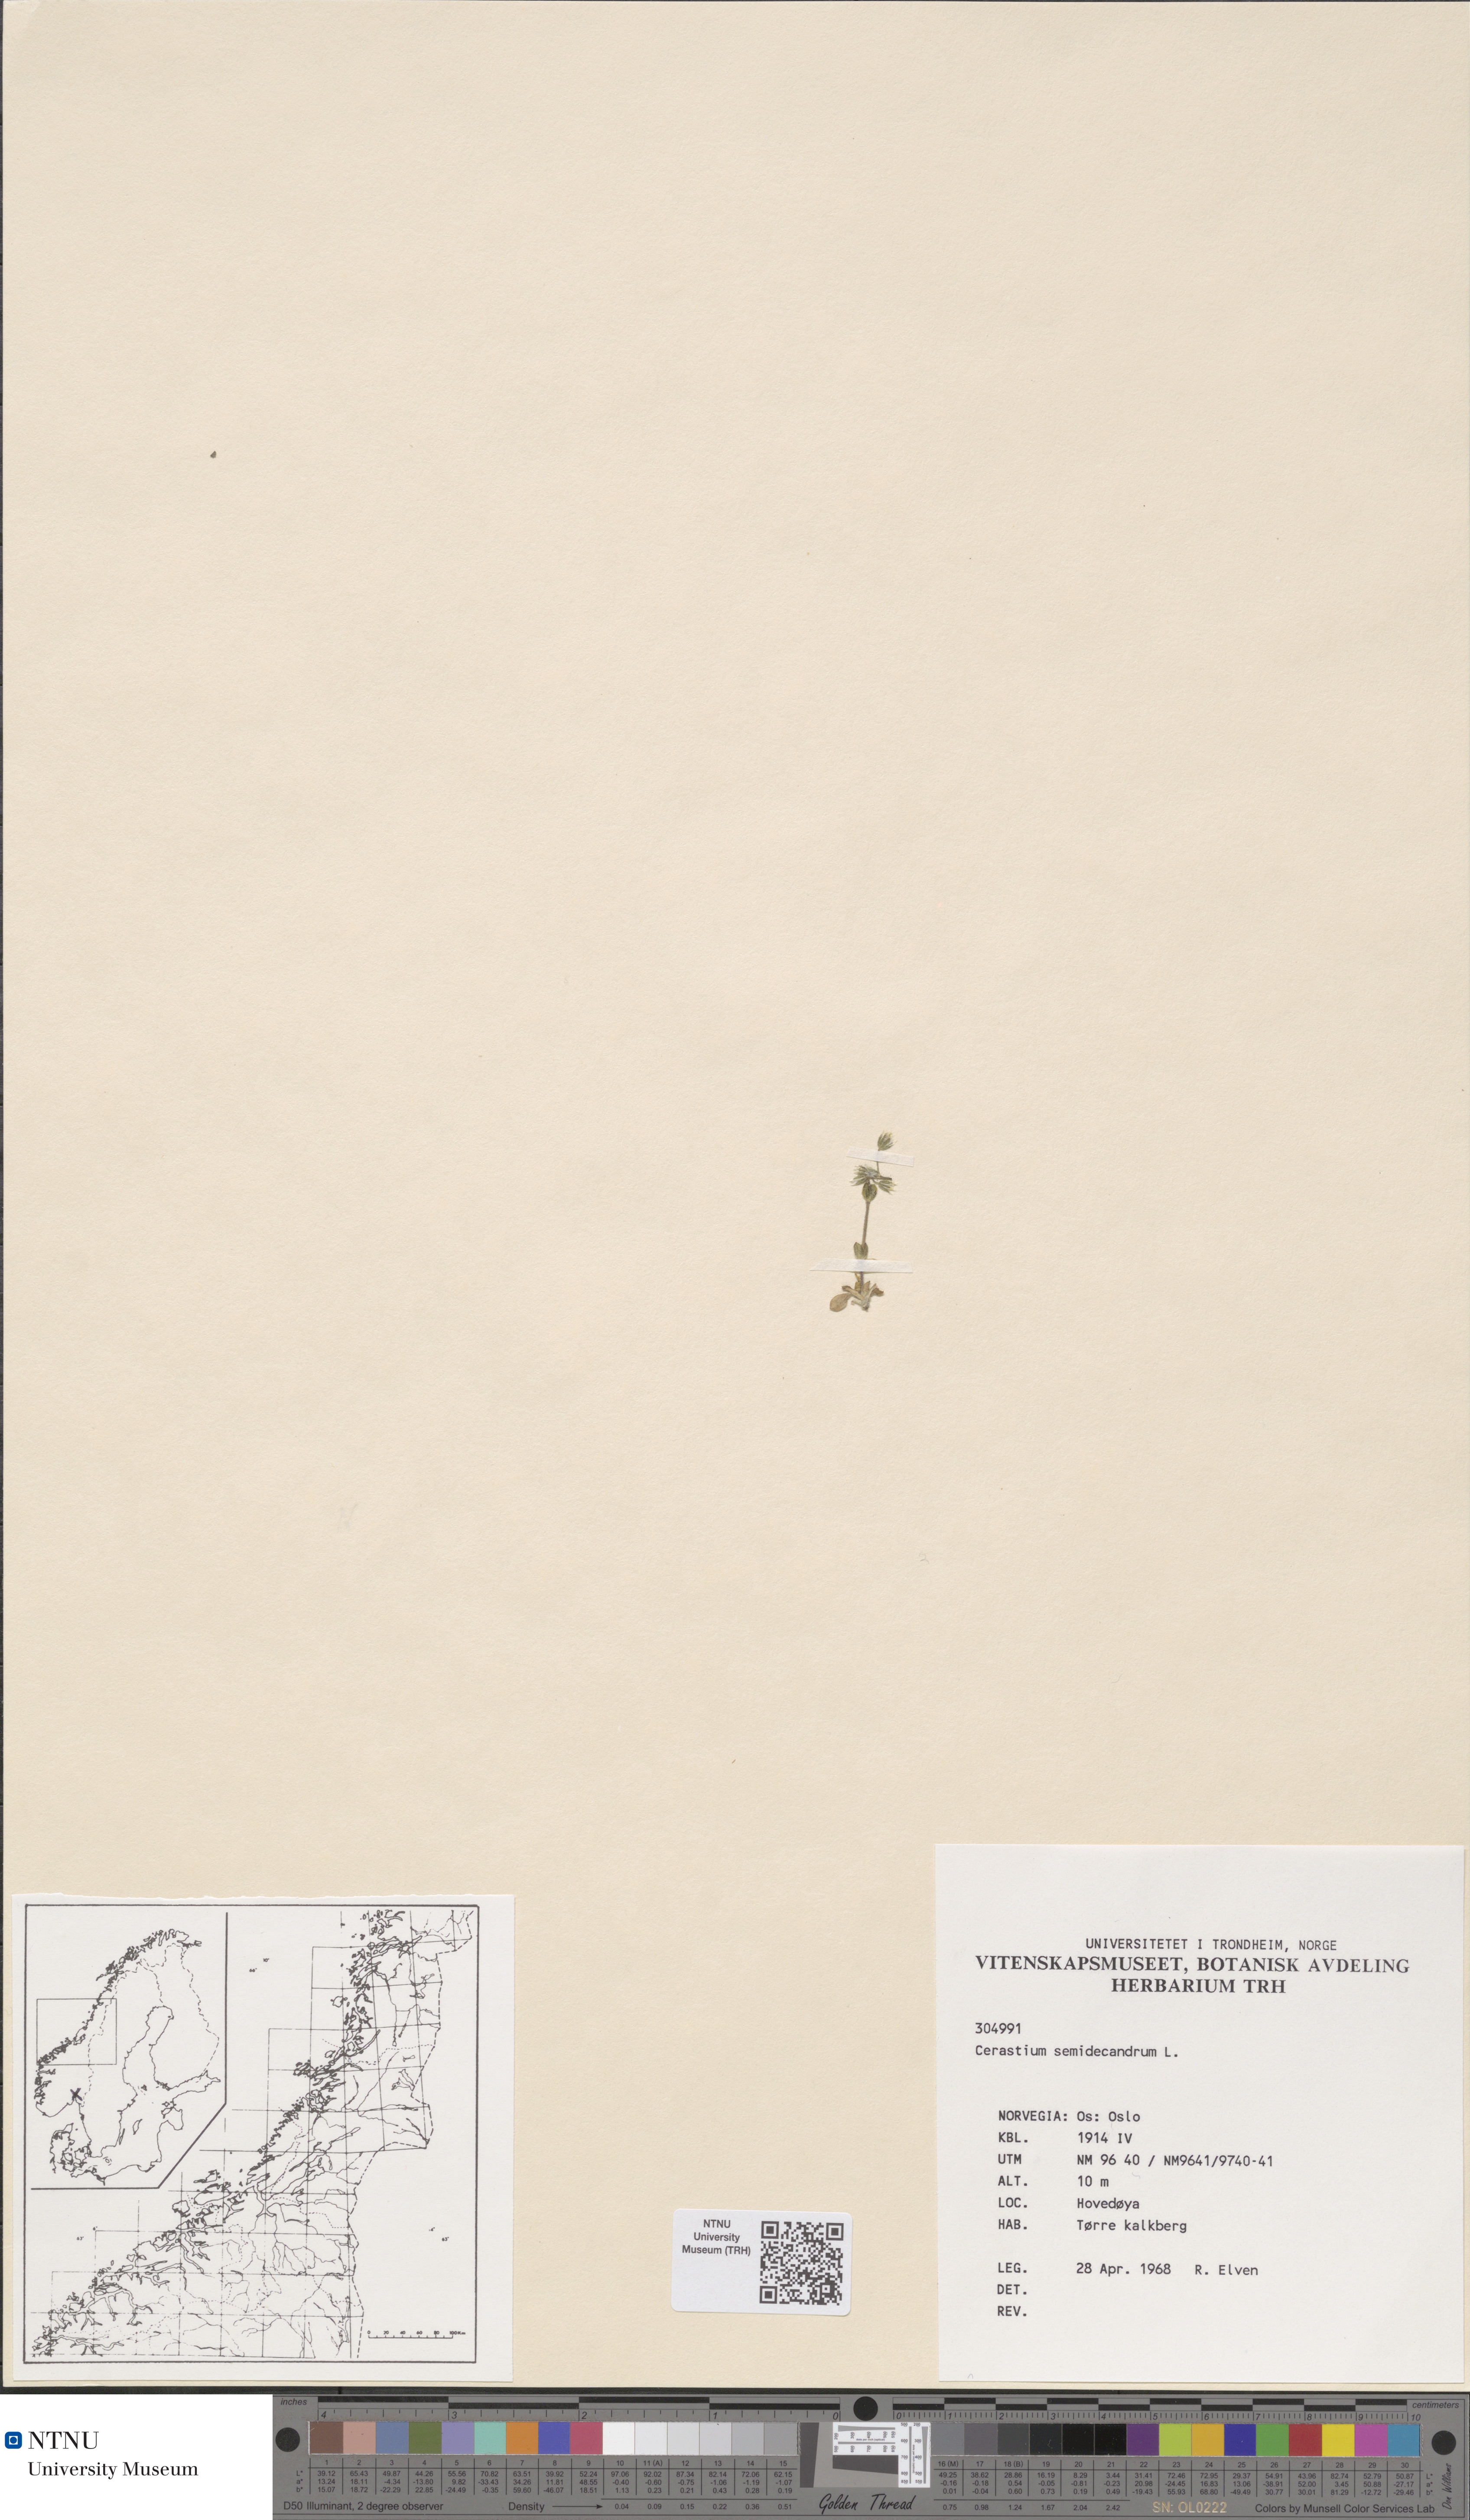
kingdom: Plantae
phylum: Tracheophyta
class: Magnoliopsida
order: Caryophyllales
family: Caryophyllaceae
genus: Cerastium
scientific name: Cerastium semidecandrum
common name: Little mouse-ear
